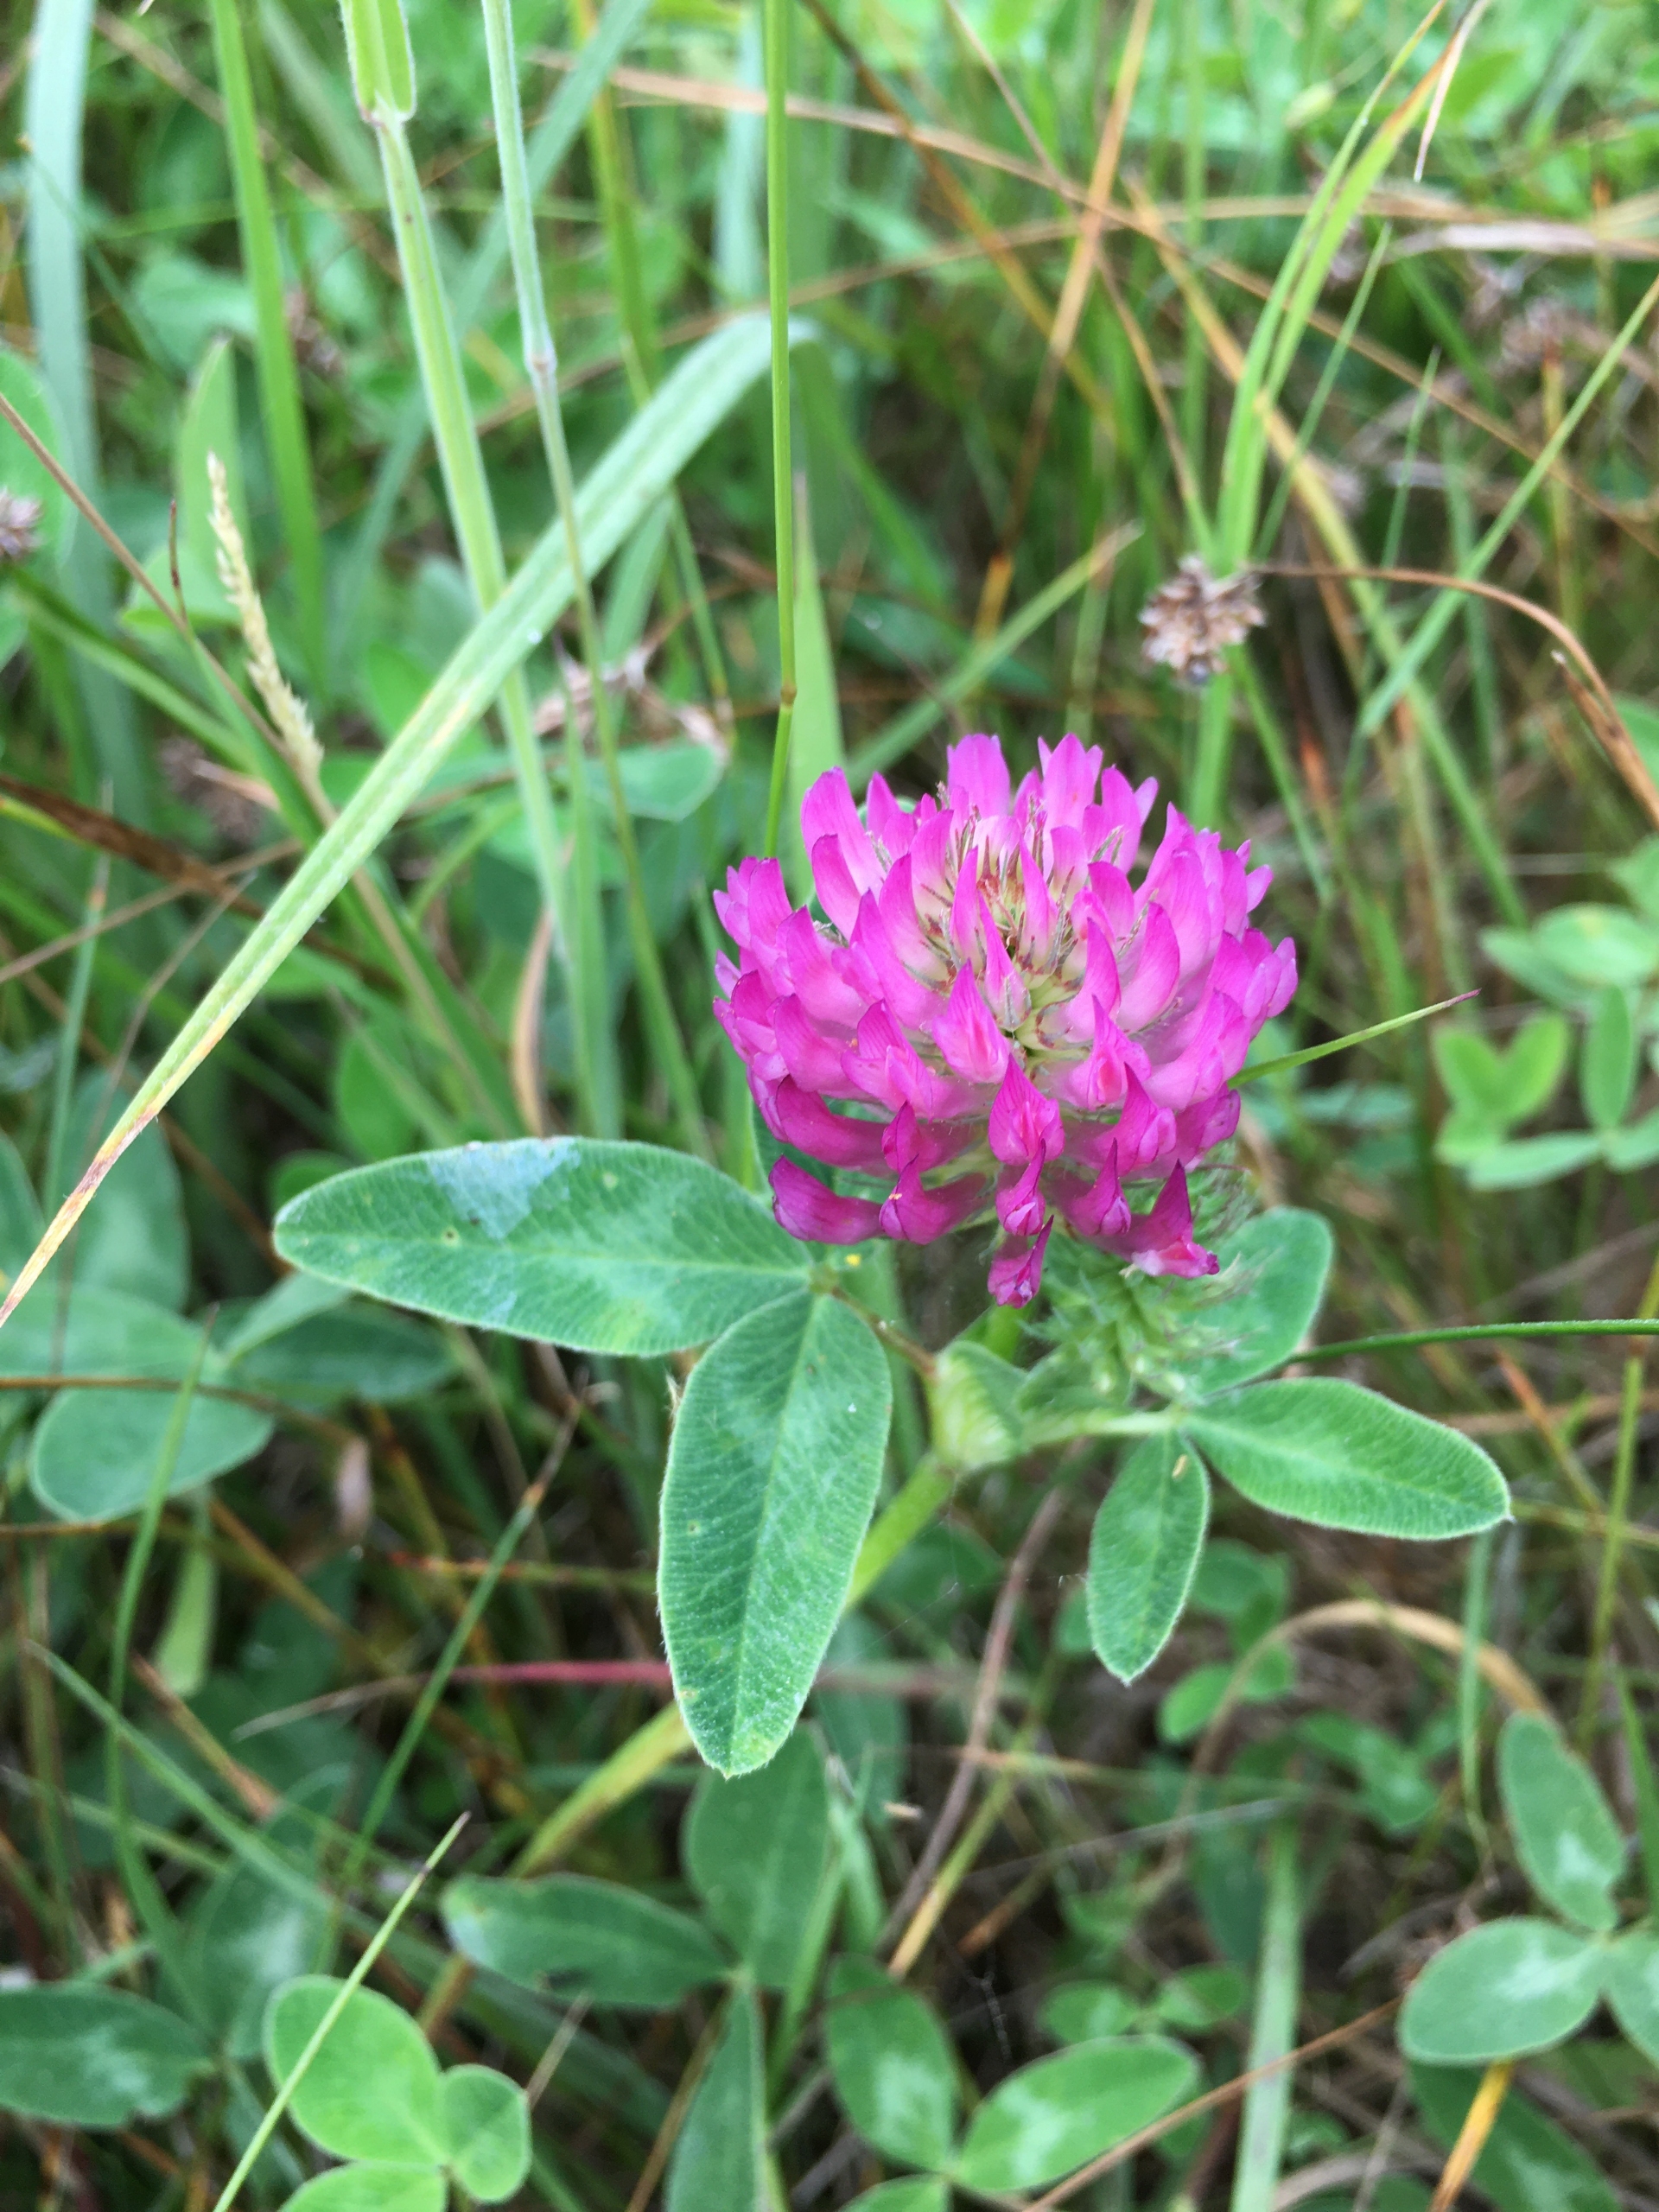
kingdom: Plantae
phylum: Tracheophyta
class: Magnoliopsida
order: Fabales
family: Fabaceae
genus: Trifolium
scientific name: Trifolium medium
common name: Bugtet kløver
